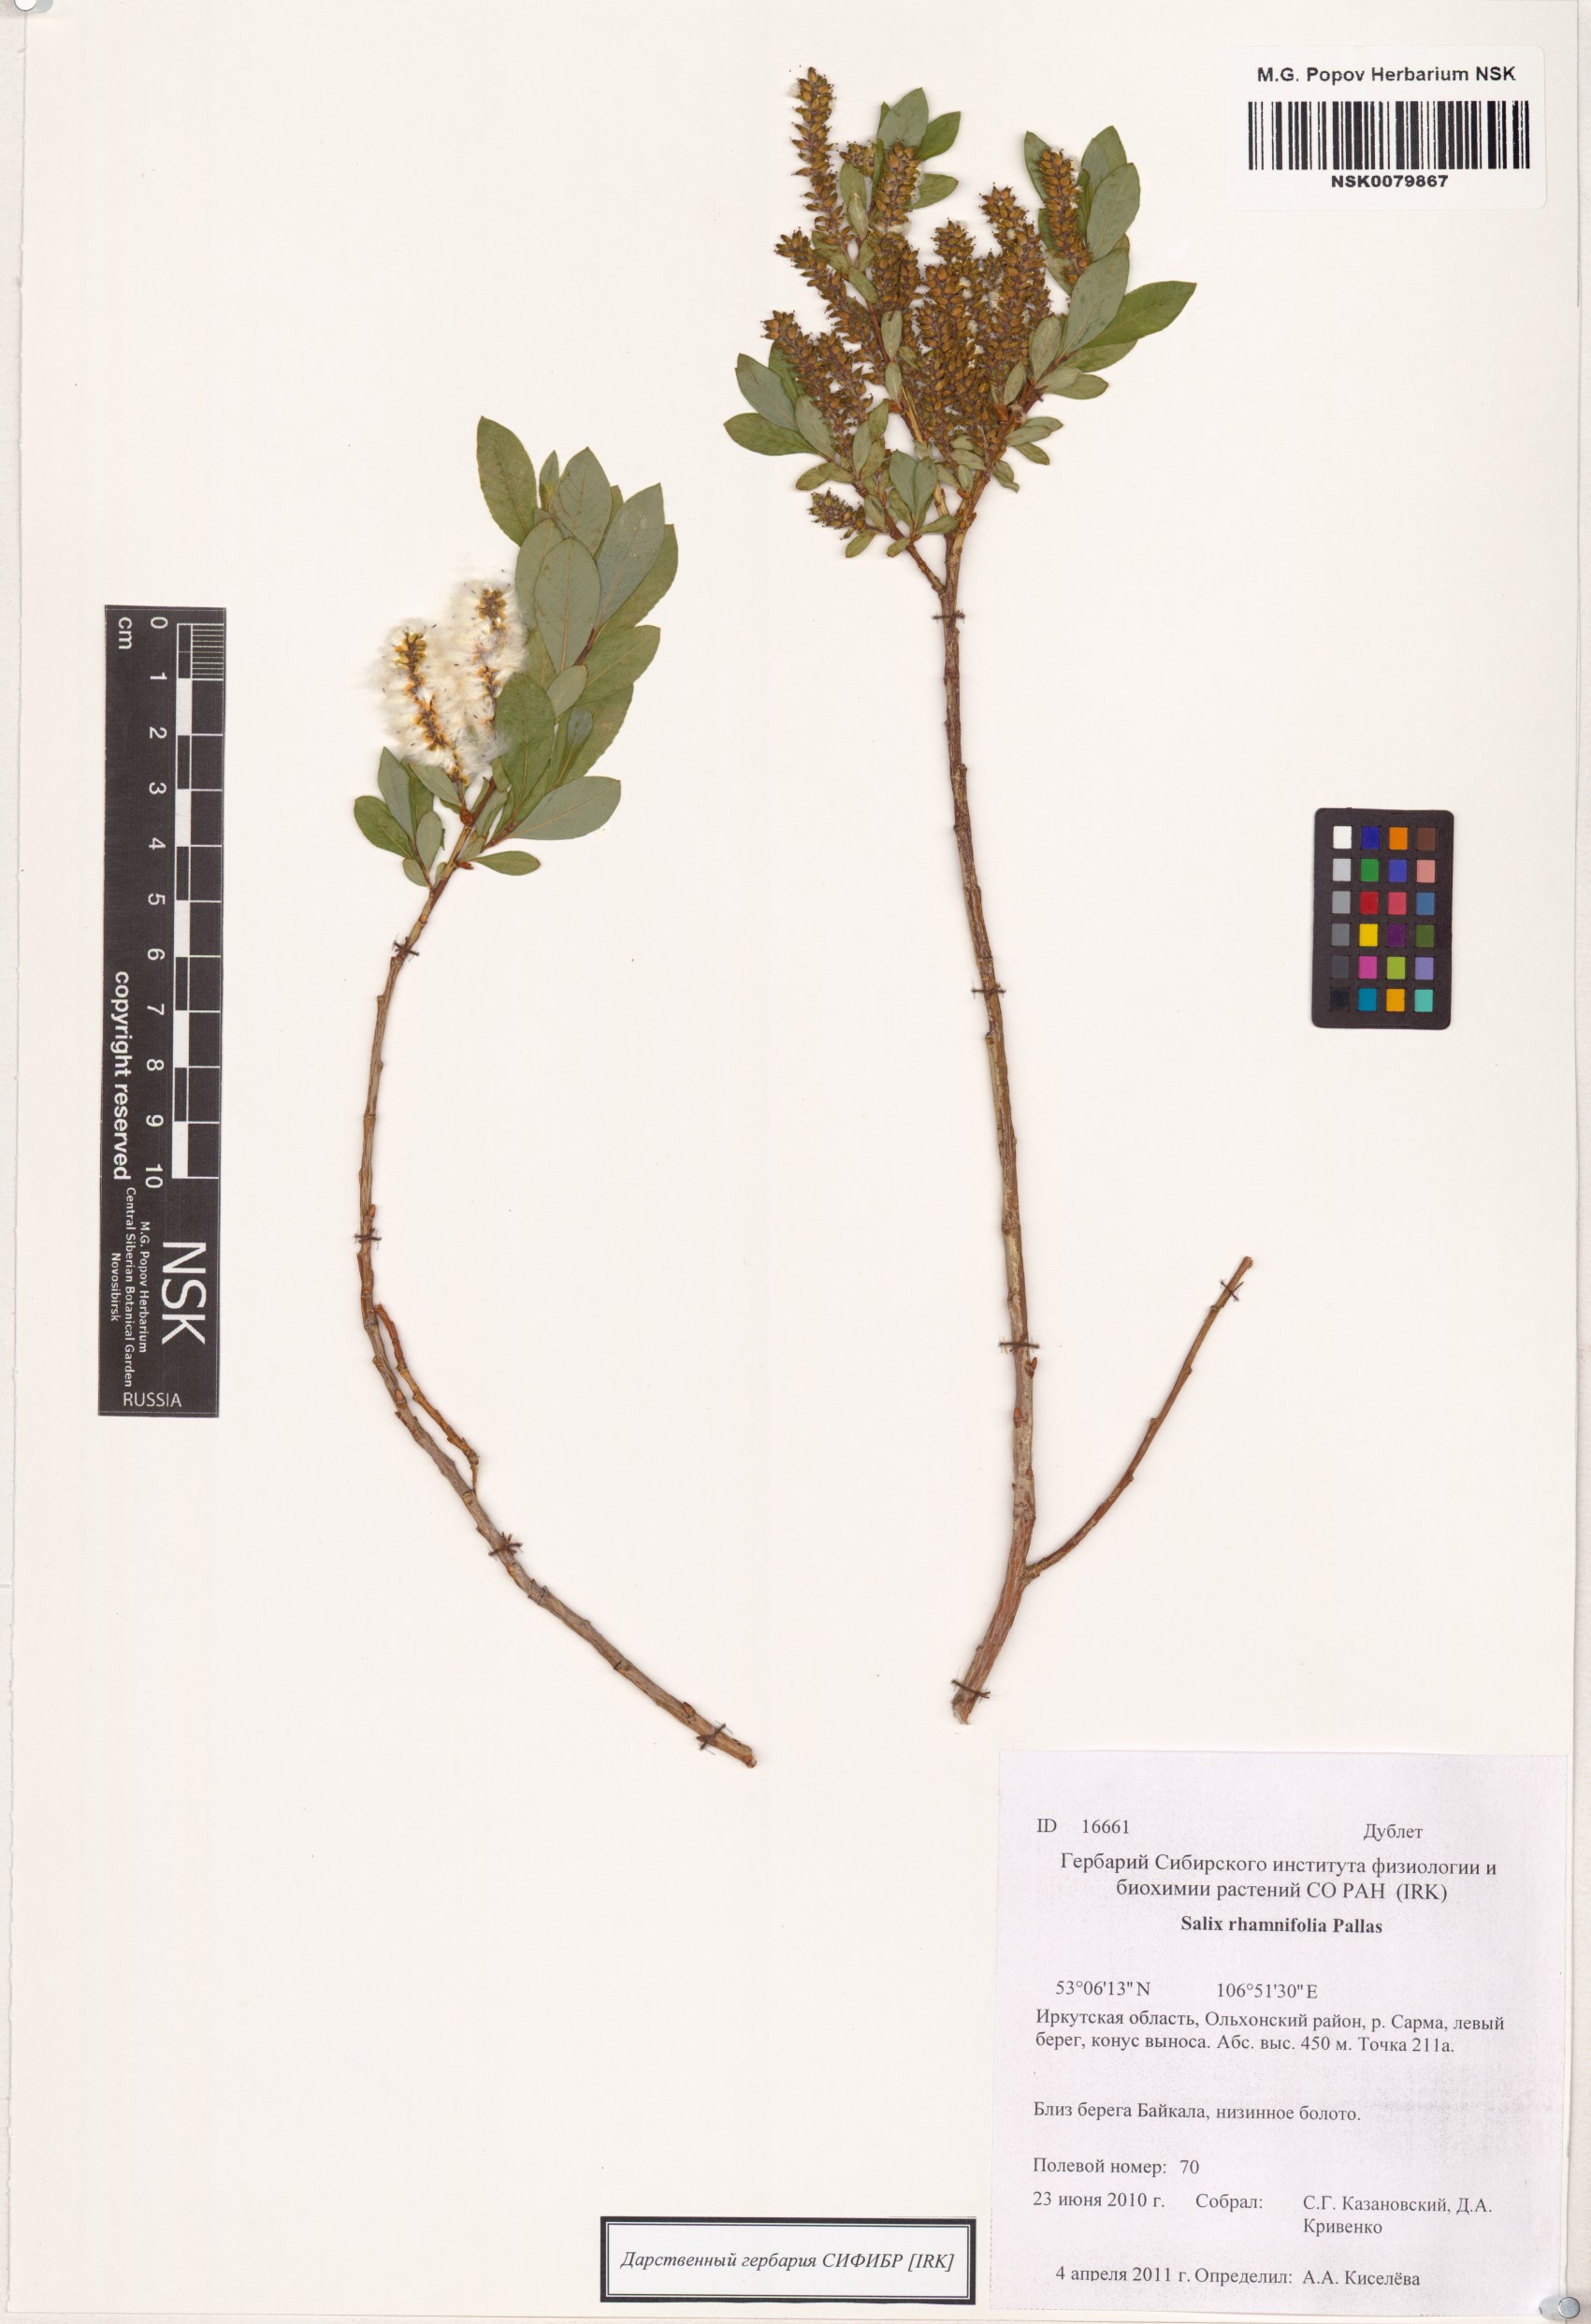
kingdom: Plantae
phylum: Tracheophyta
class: Magnoliopsida
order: Malpighiales
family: Salicaceae
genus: Salix
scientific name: Salix rhamnifolia
